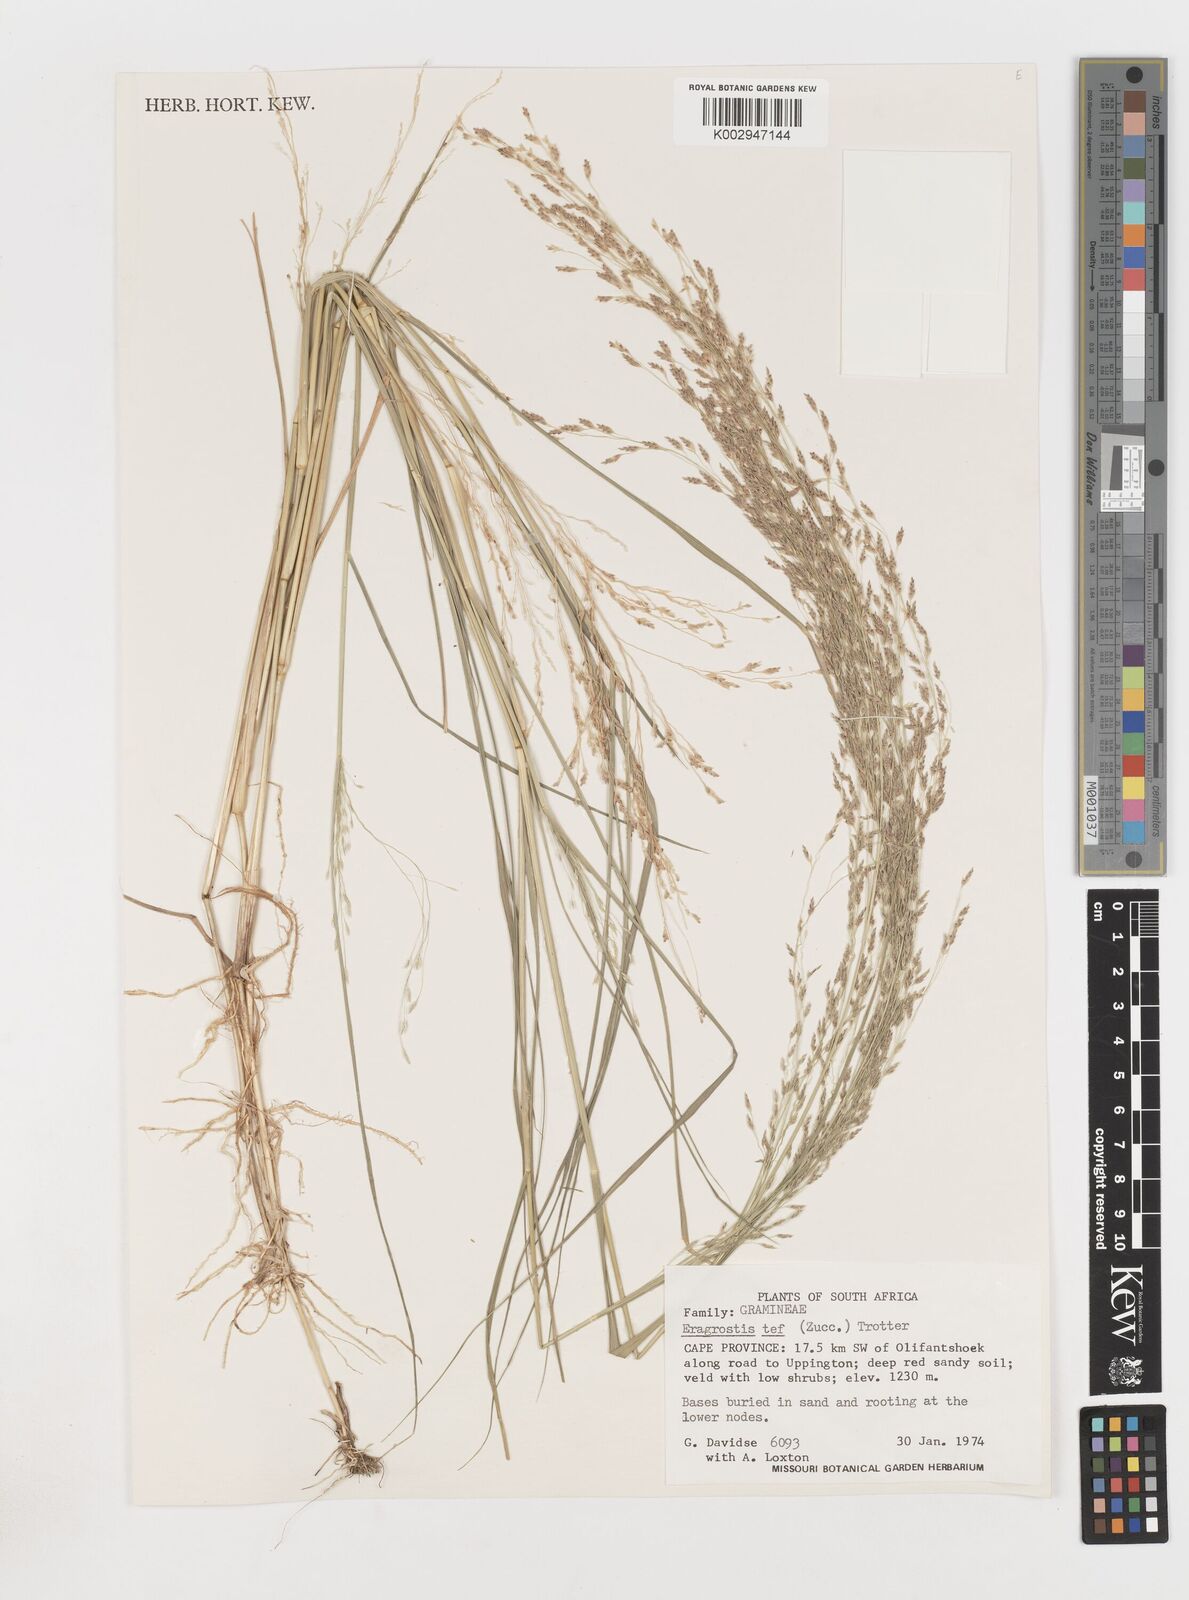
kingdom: Plantae
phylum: Tracheophyta
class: Liliopsida
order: Poales
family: Poaceae
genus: Eragrostis
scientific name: Eragrostis tef
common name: Teff
